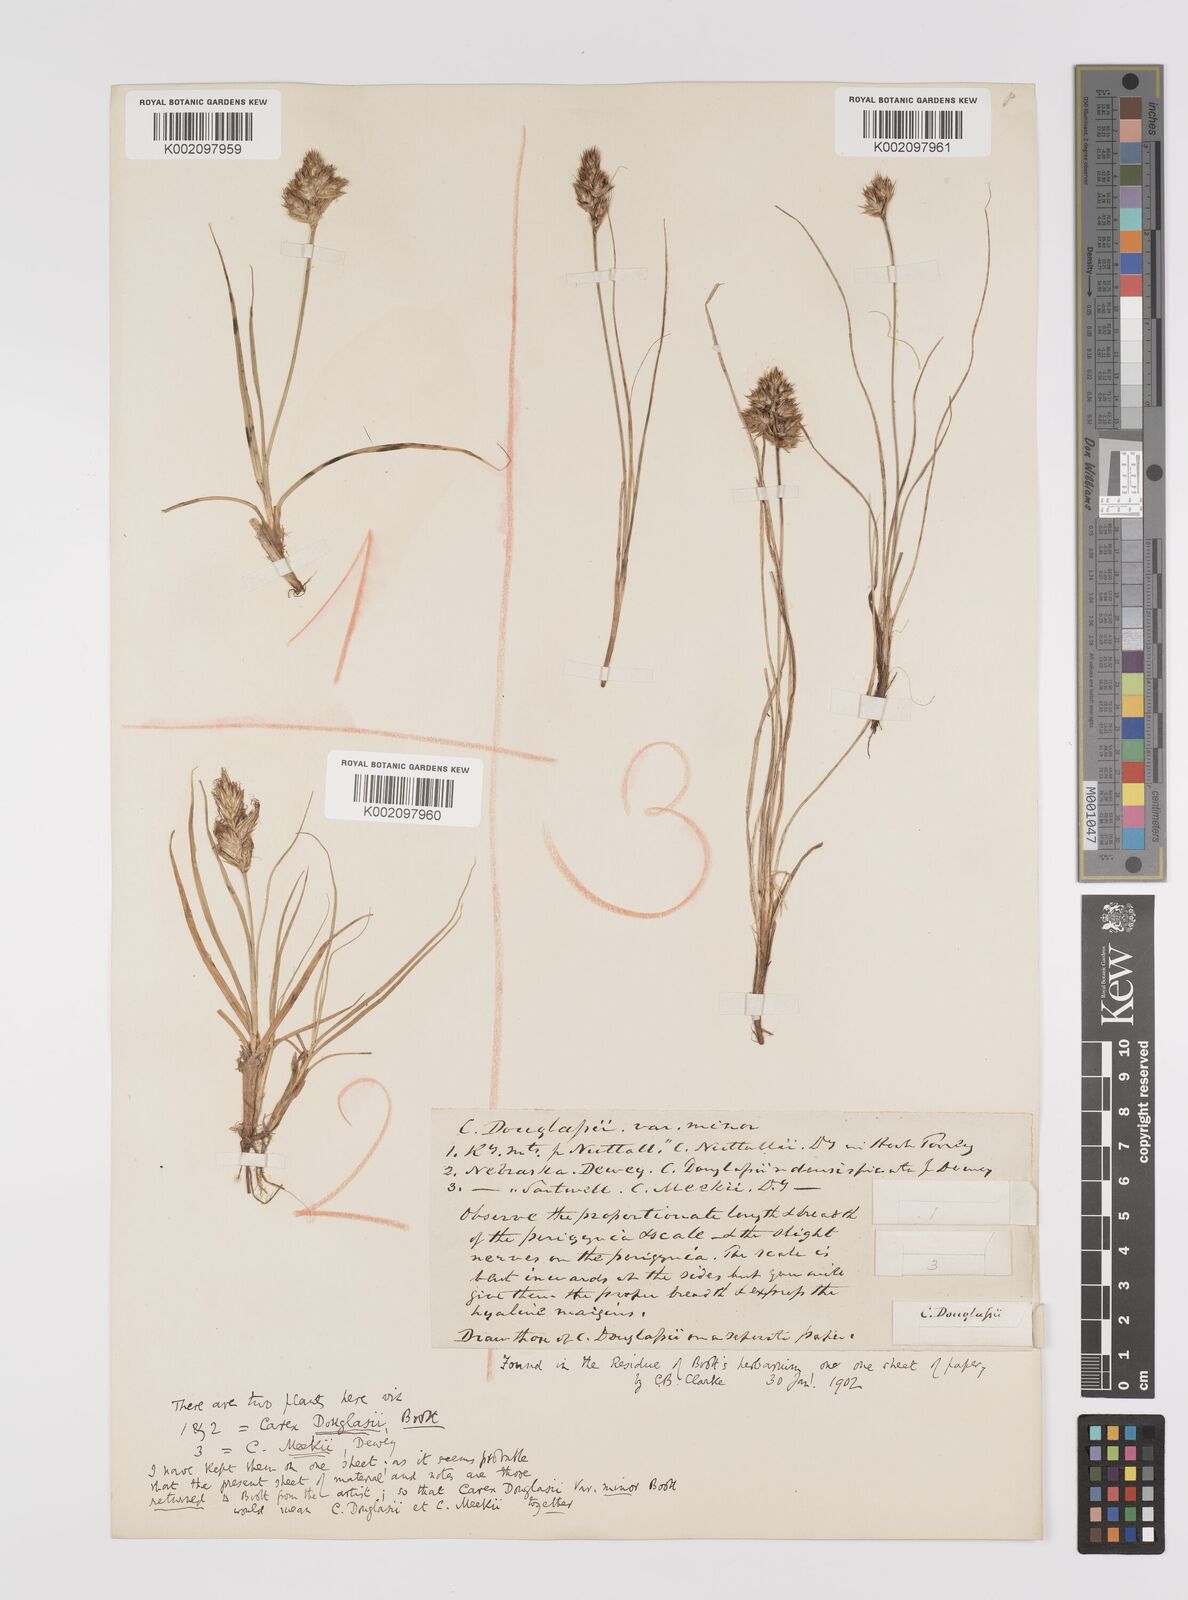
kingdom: Plantae
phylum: Tracheophyta
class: Liliopsida
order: Poales
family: Cyperaceae
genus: Carex
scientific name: Carex douglasii
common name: Douglas' sedge
